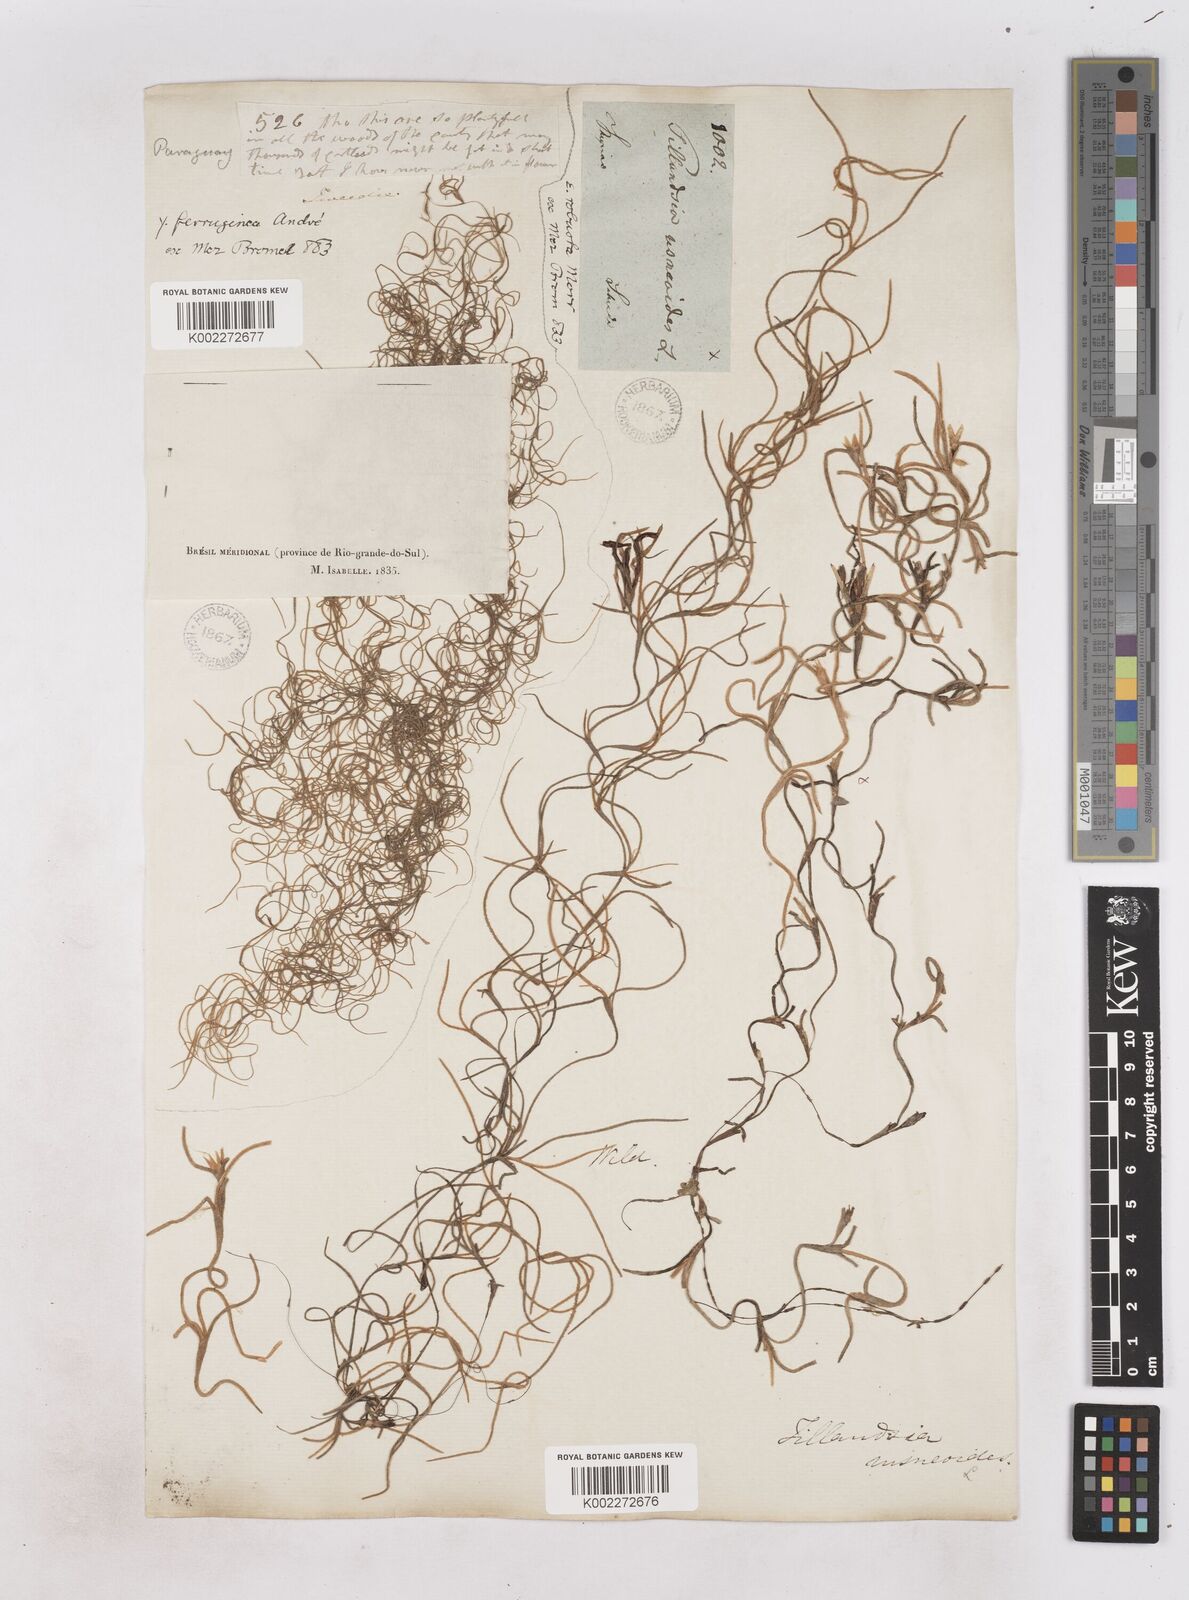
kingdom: Plantae
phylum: Tracheophyta
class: Liliopsida
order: Poales
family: Bromeliaceae
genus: Tillandsia
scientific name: Tillandsia usneoides
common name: Spanish moss
